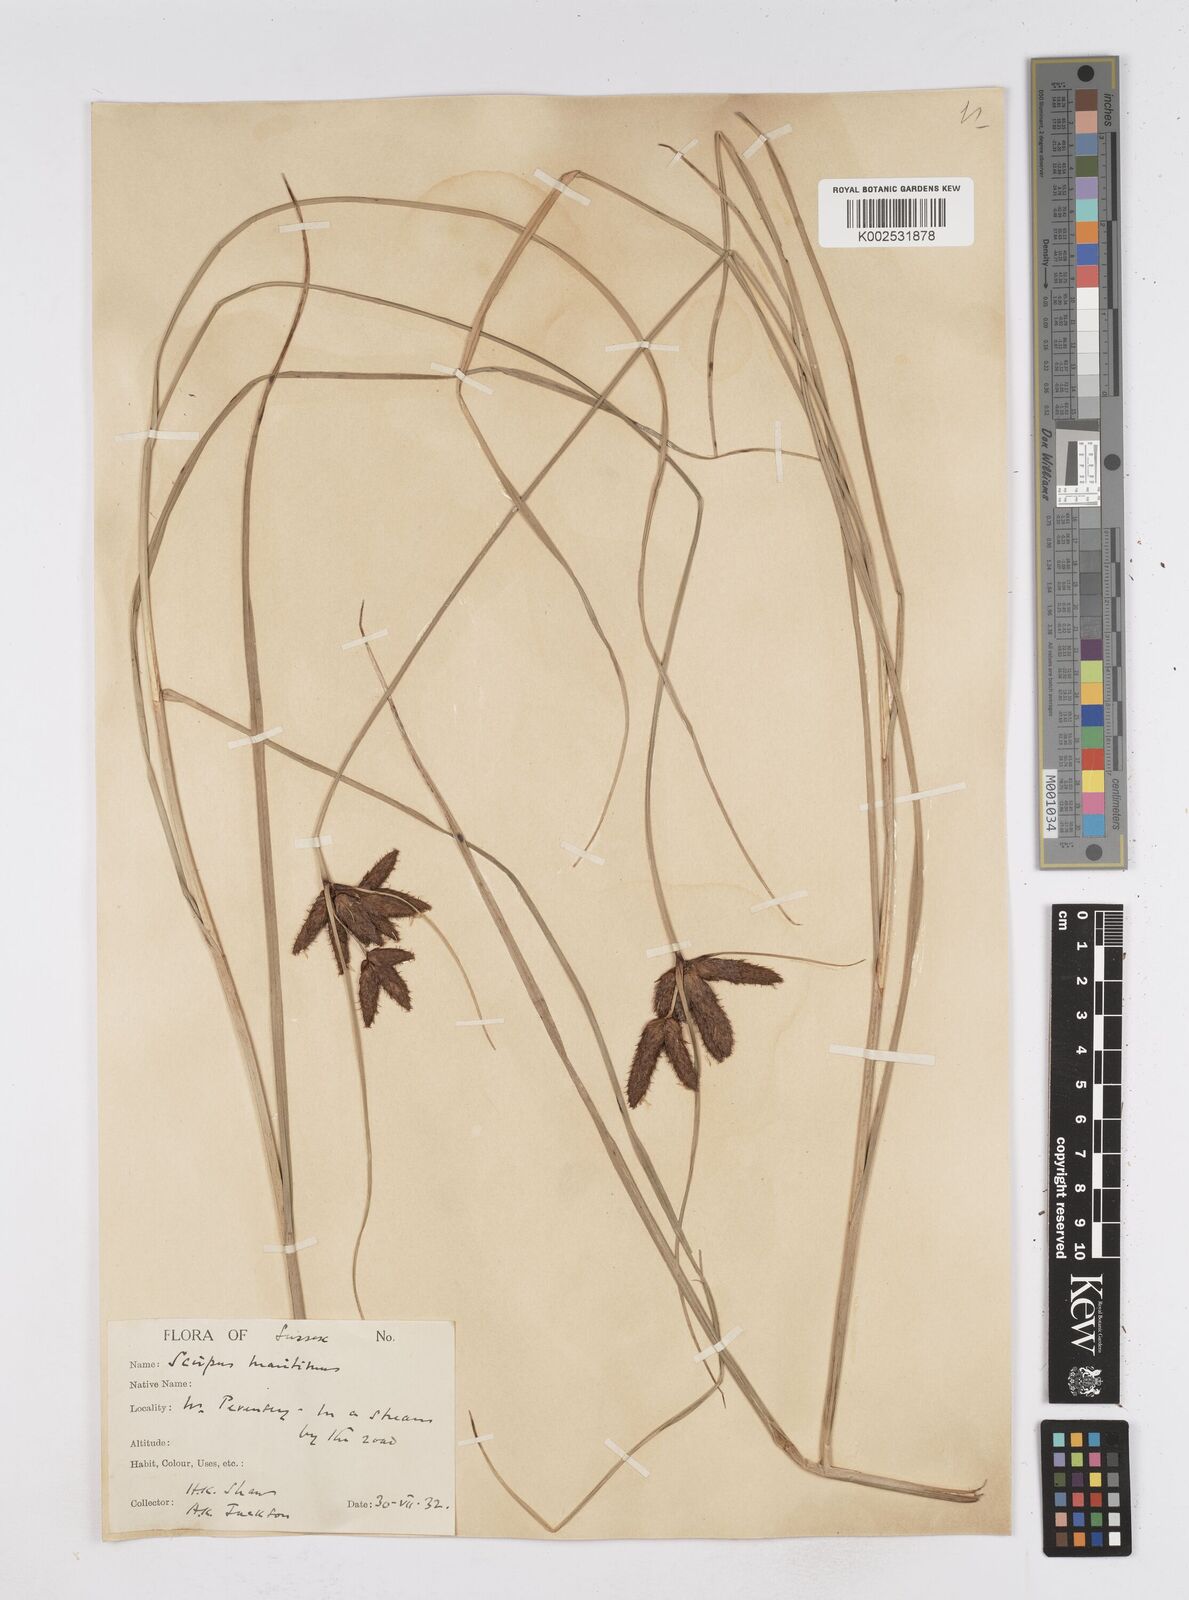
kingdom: Plantae
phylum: Tracheophyta
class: Liliopsida
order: Poales
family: Cyperaceae
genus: Bolboschoenus
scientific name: Bolboschoenus maritimus
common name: Sea club-rush
